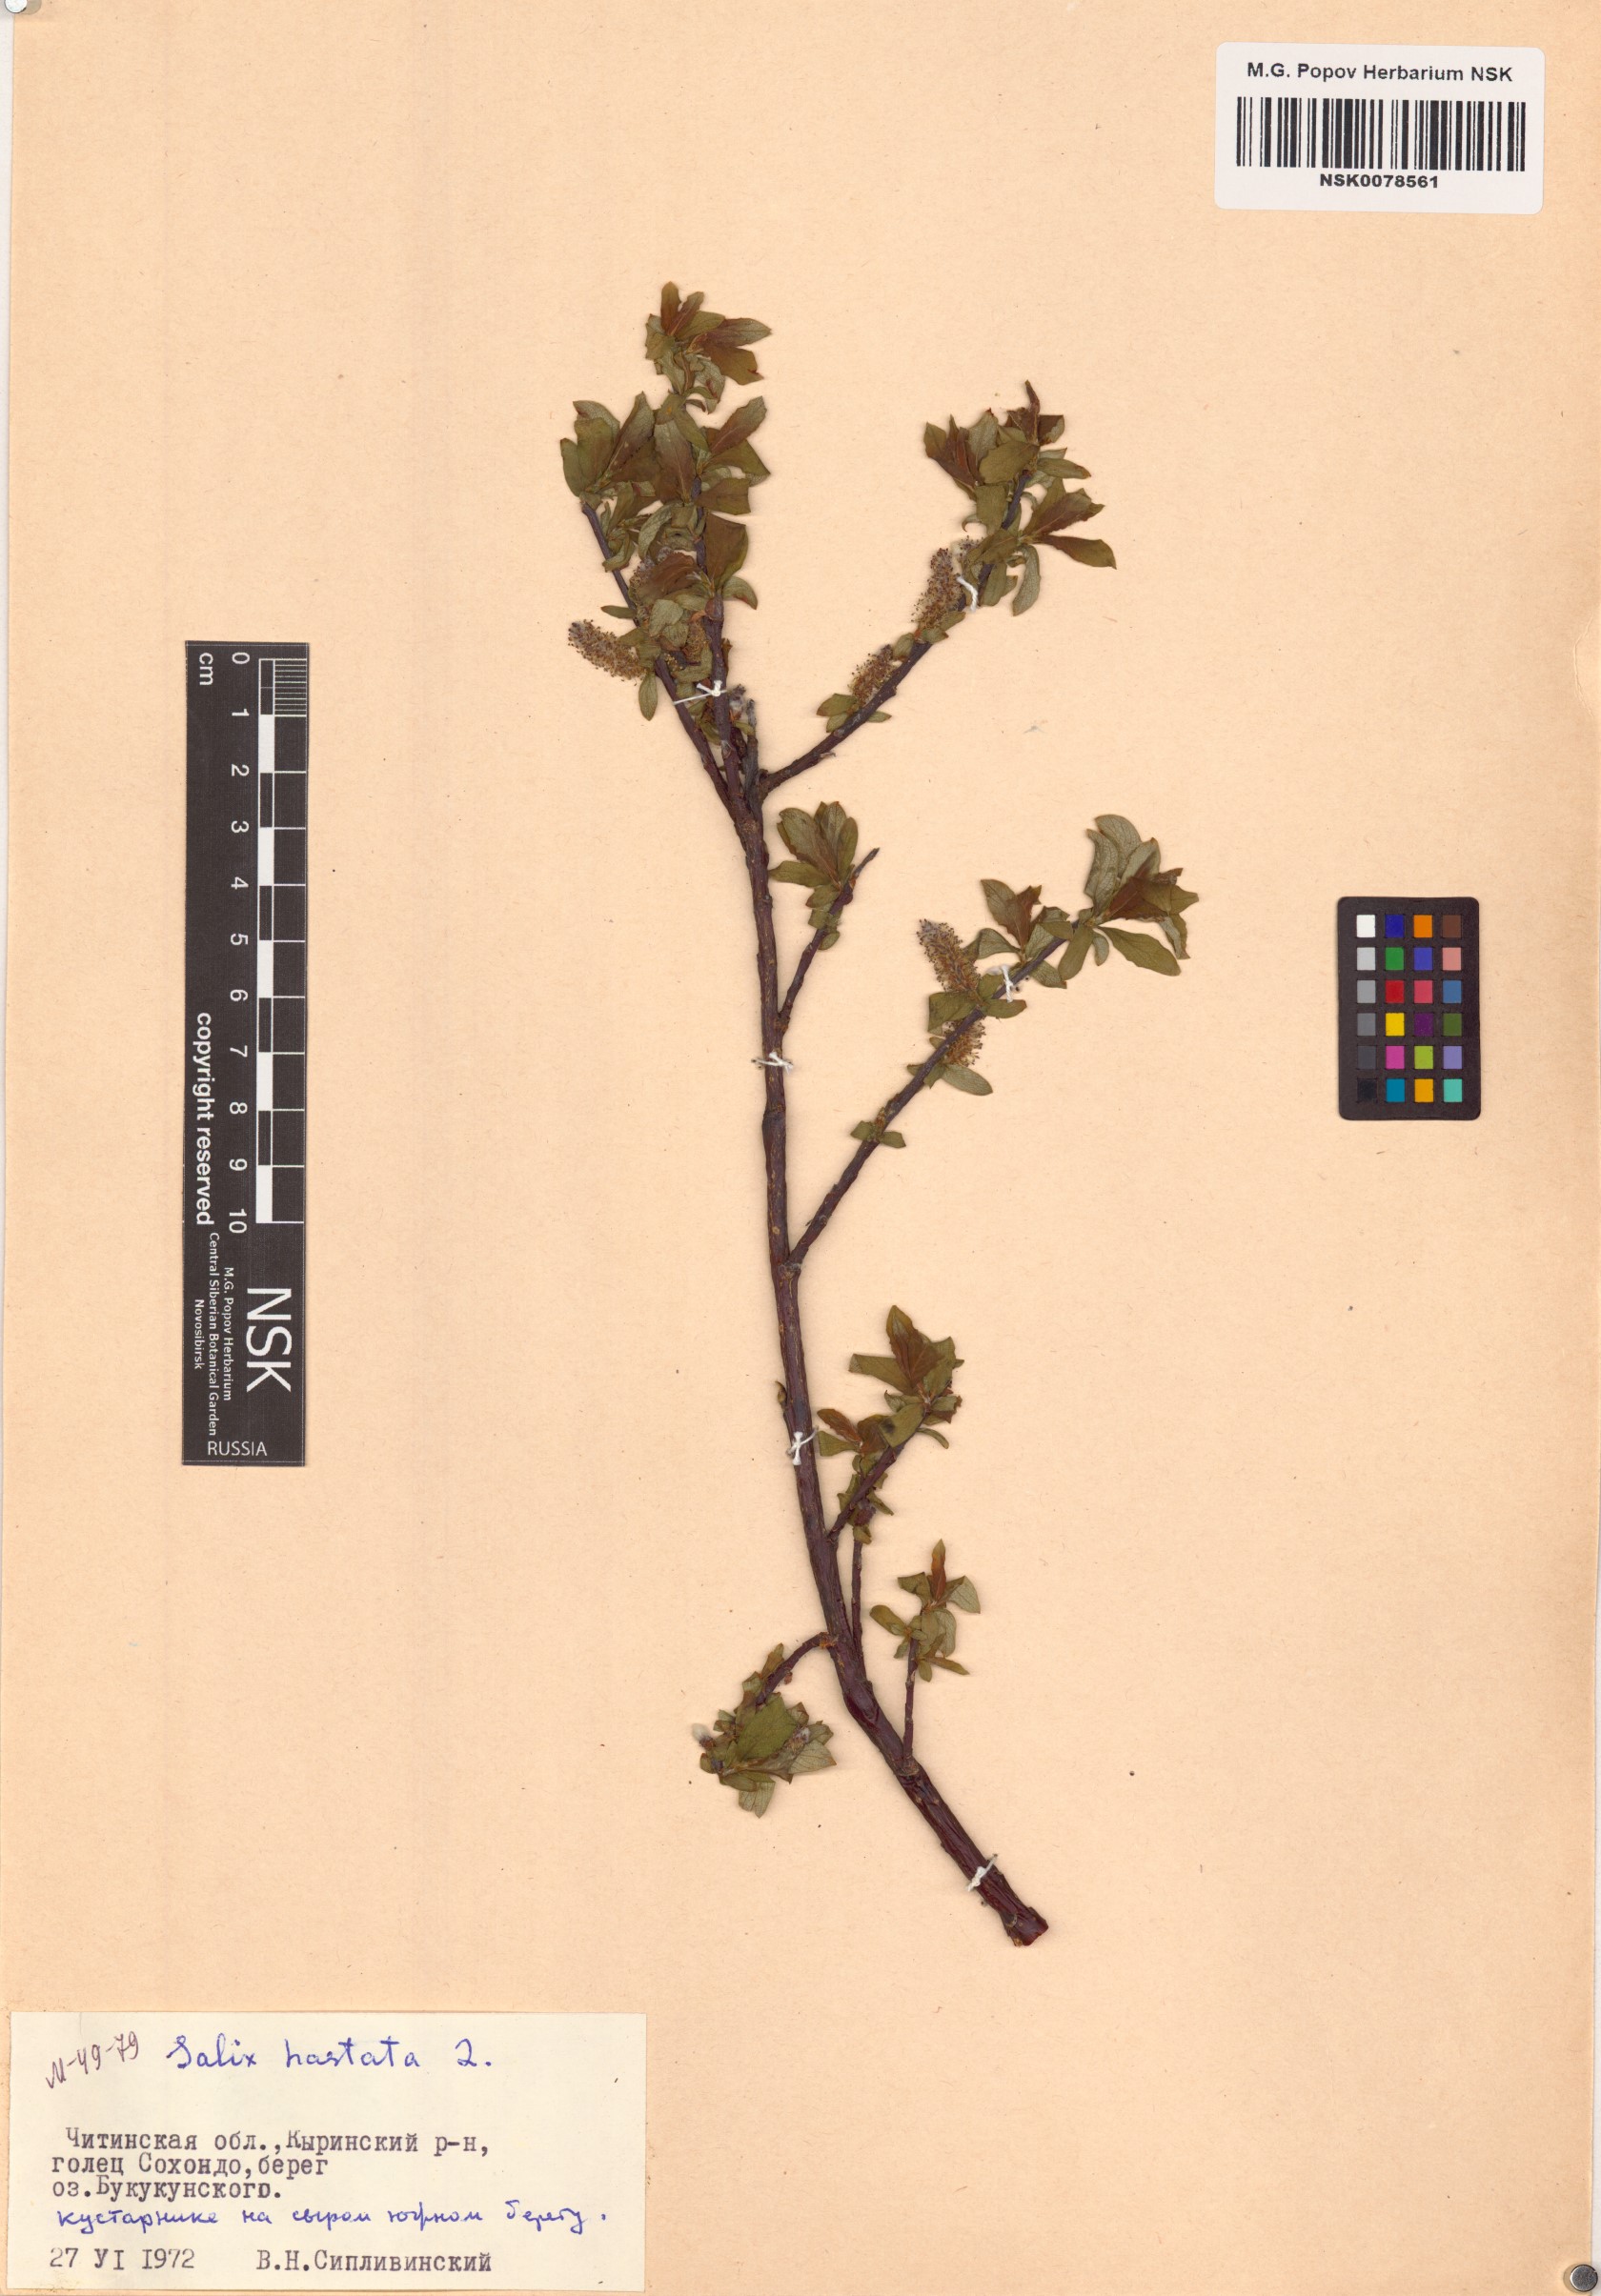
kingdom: Plantae
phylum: Tracheophyta
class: Magnoliopsida
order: Malpighiales
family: Salicaceae
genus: Salix
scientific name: Salix hastata
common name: Halberd willow
